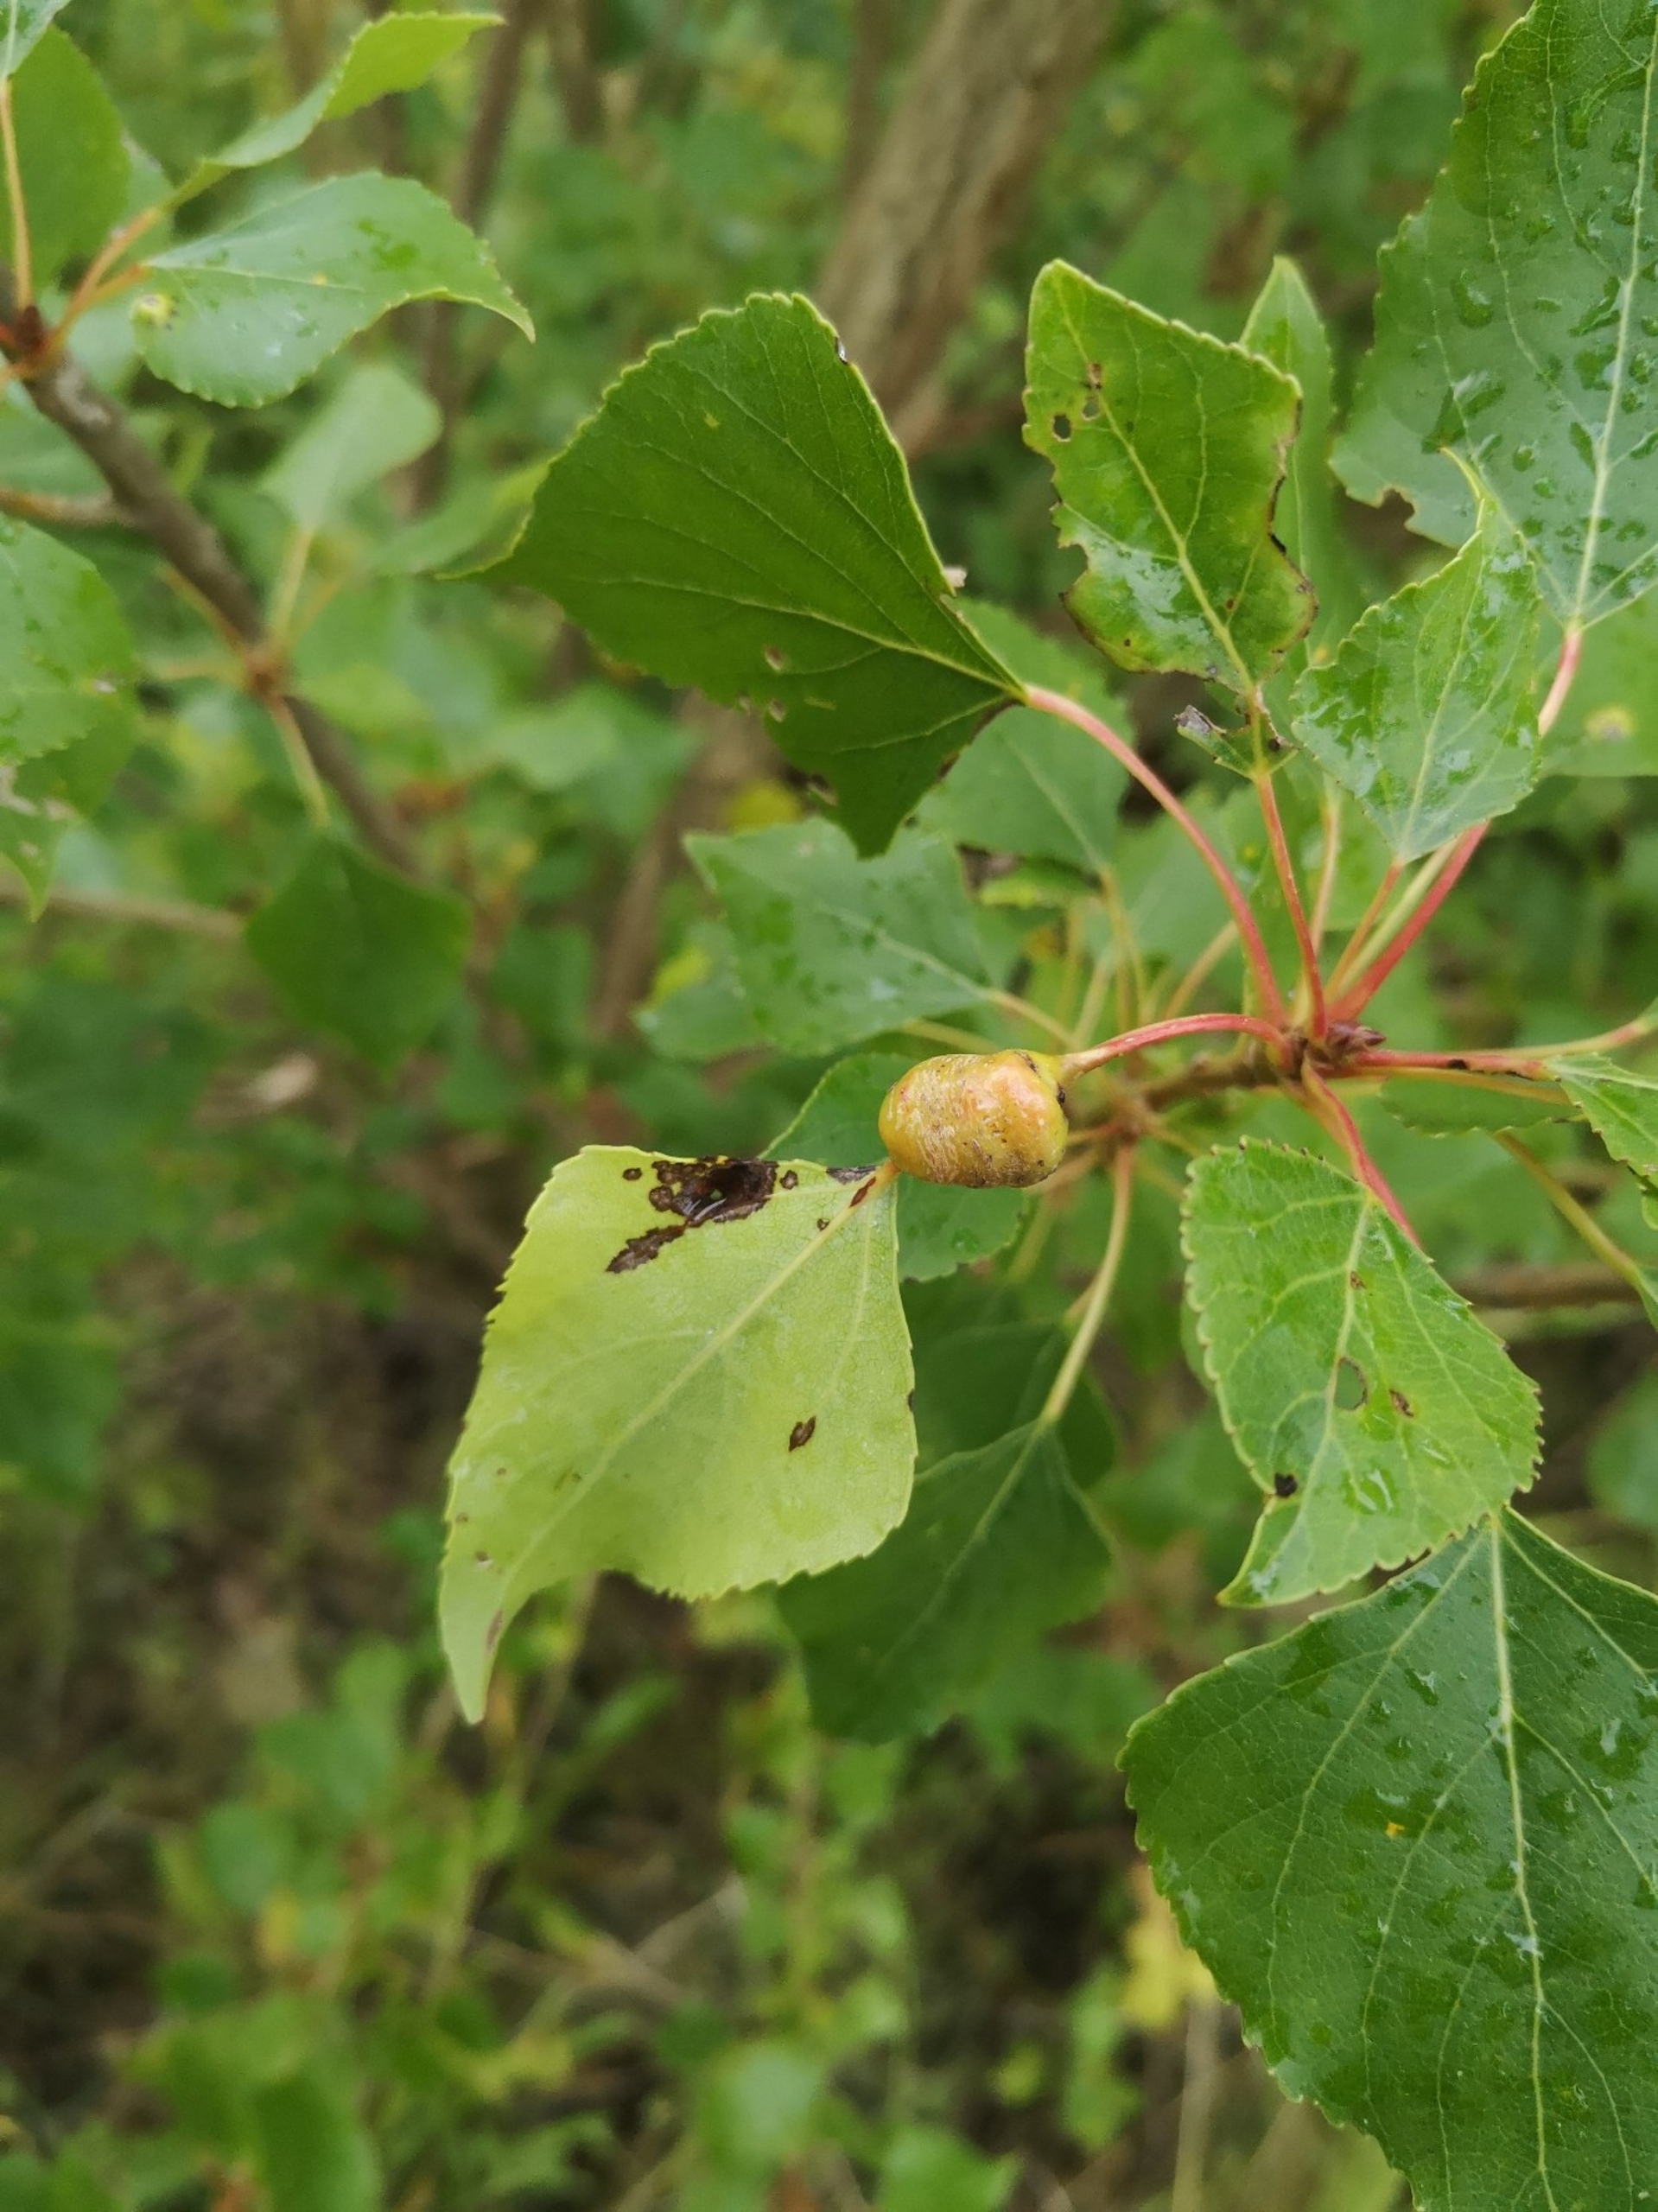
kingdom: Animalia
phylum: Arthropoda
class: Insecta
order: Hemiptera
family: Aphididae
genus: Pemphigus
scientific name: Pemphigus spyrothecae
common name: Spiralgallebladlus
